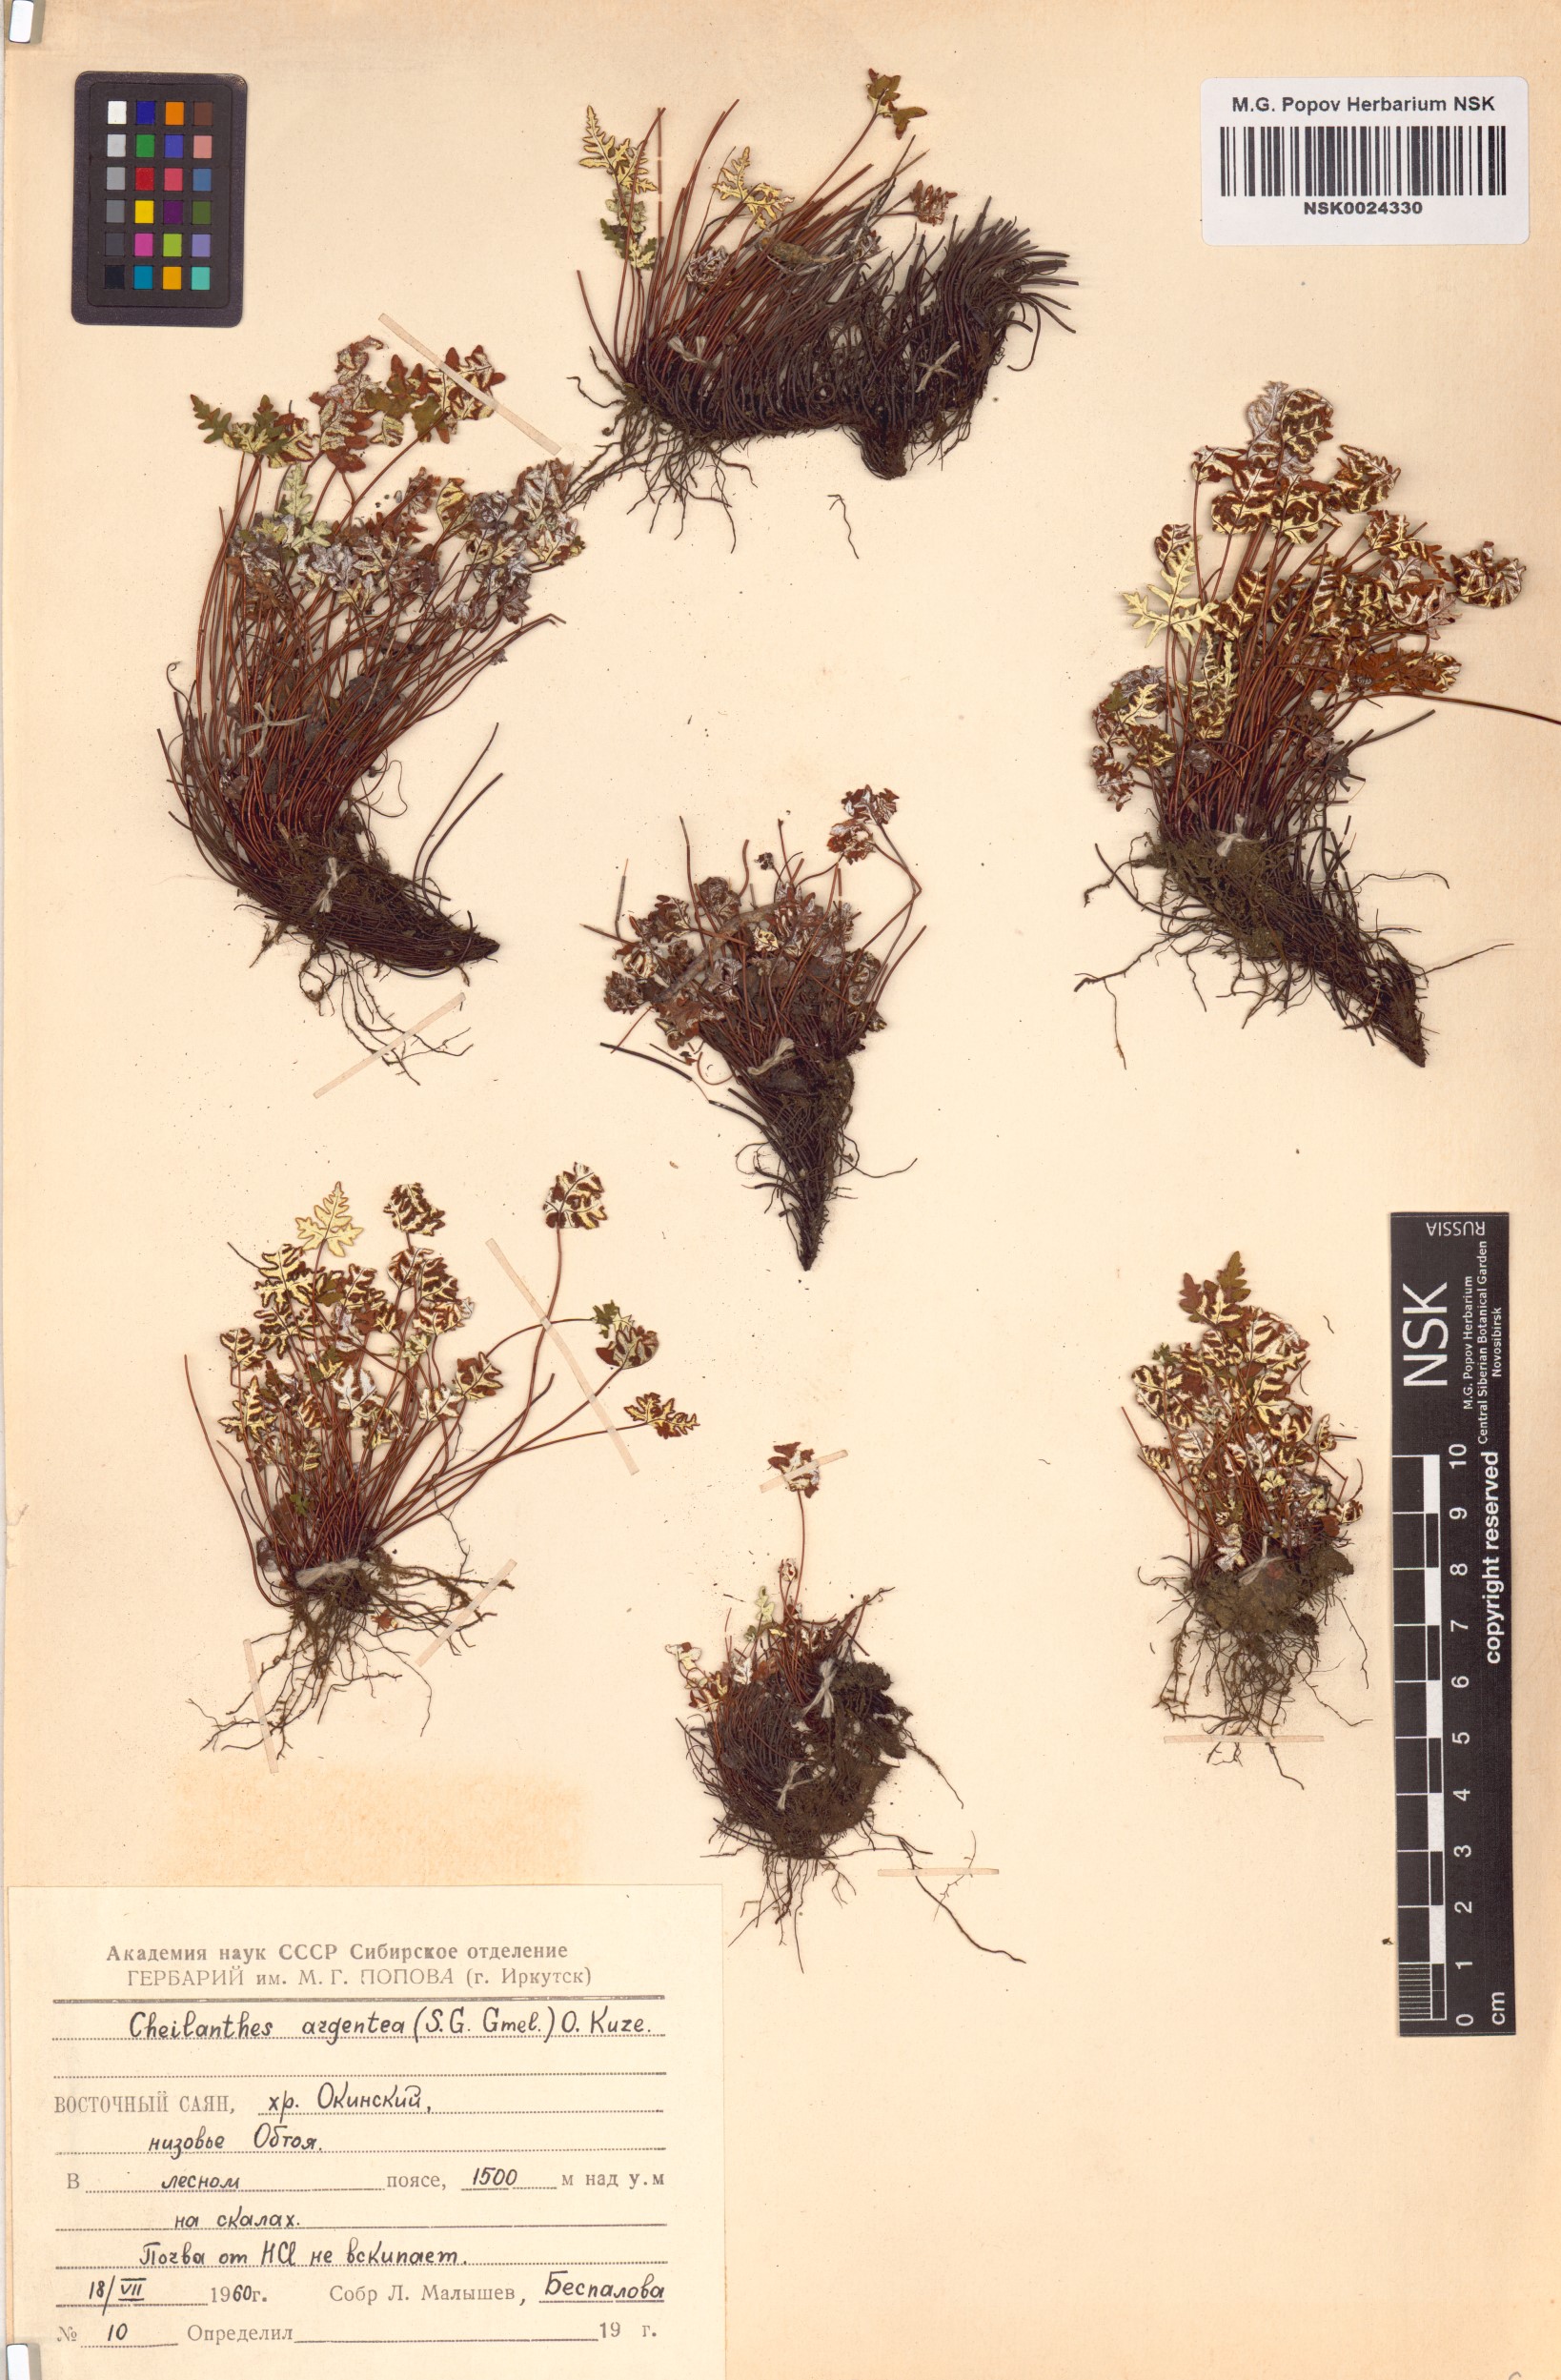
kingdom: Plantae
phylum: Tracheophyta
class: Polypodiopsida
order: Polypodiales
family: Pteridaceae
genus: Aleuritopteris
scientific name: Aleuritopteris argentea
